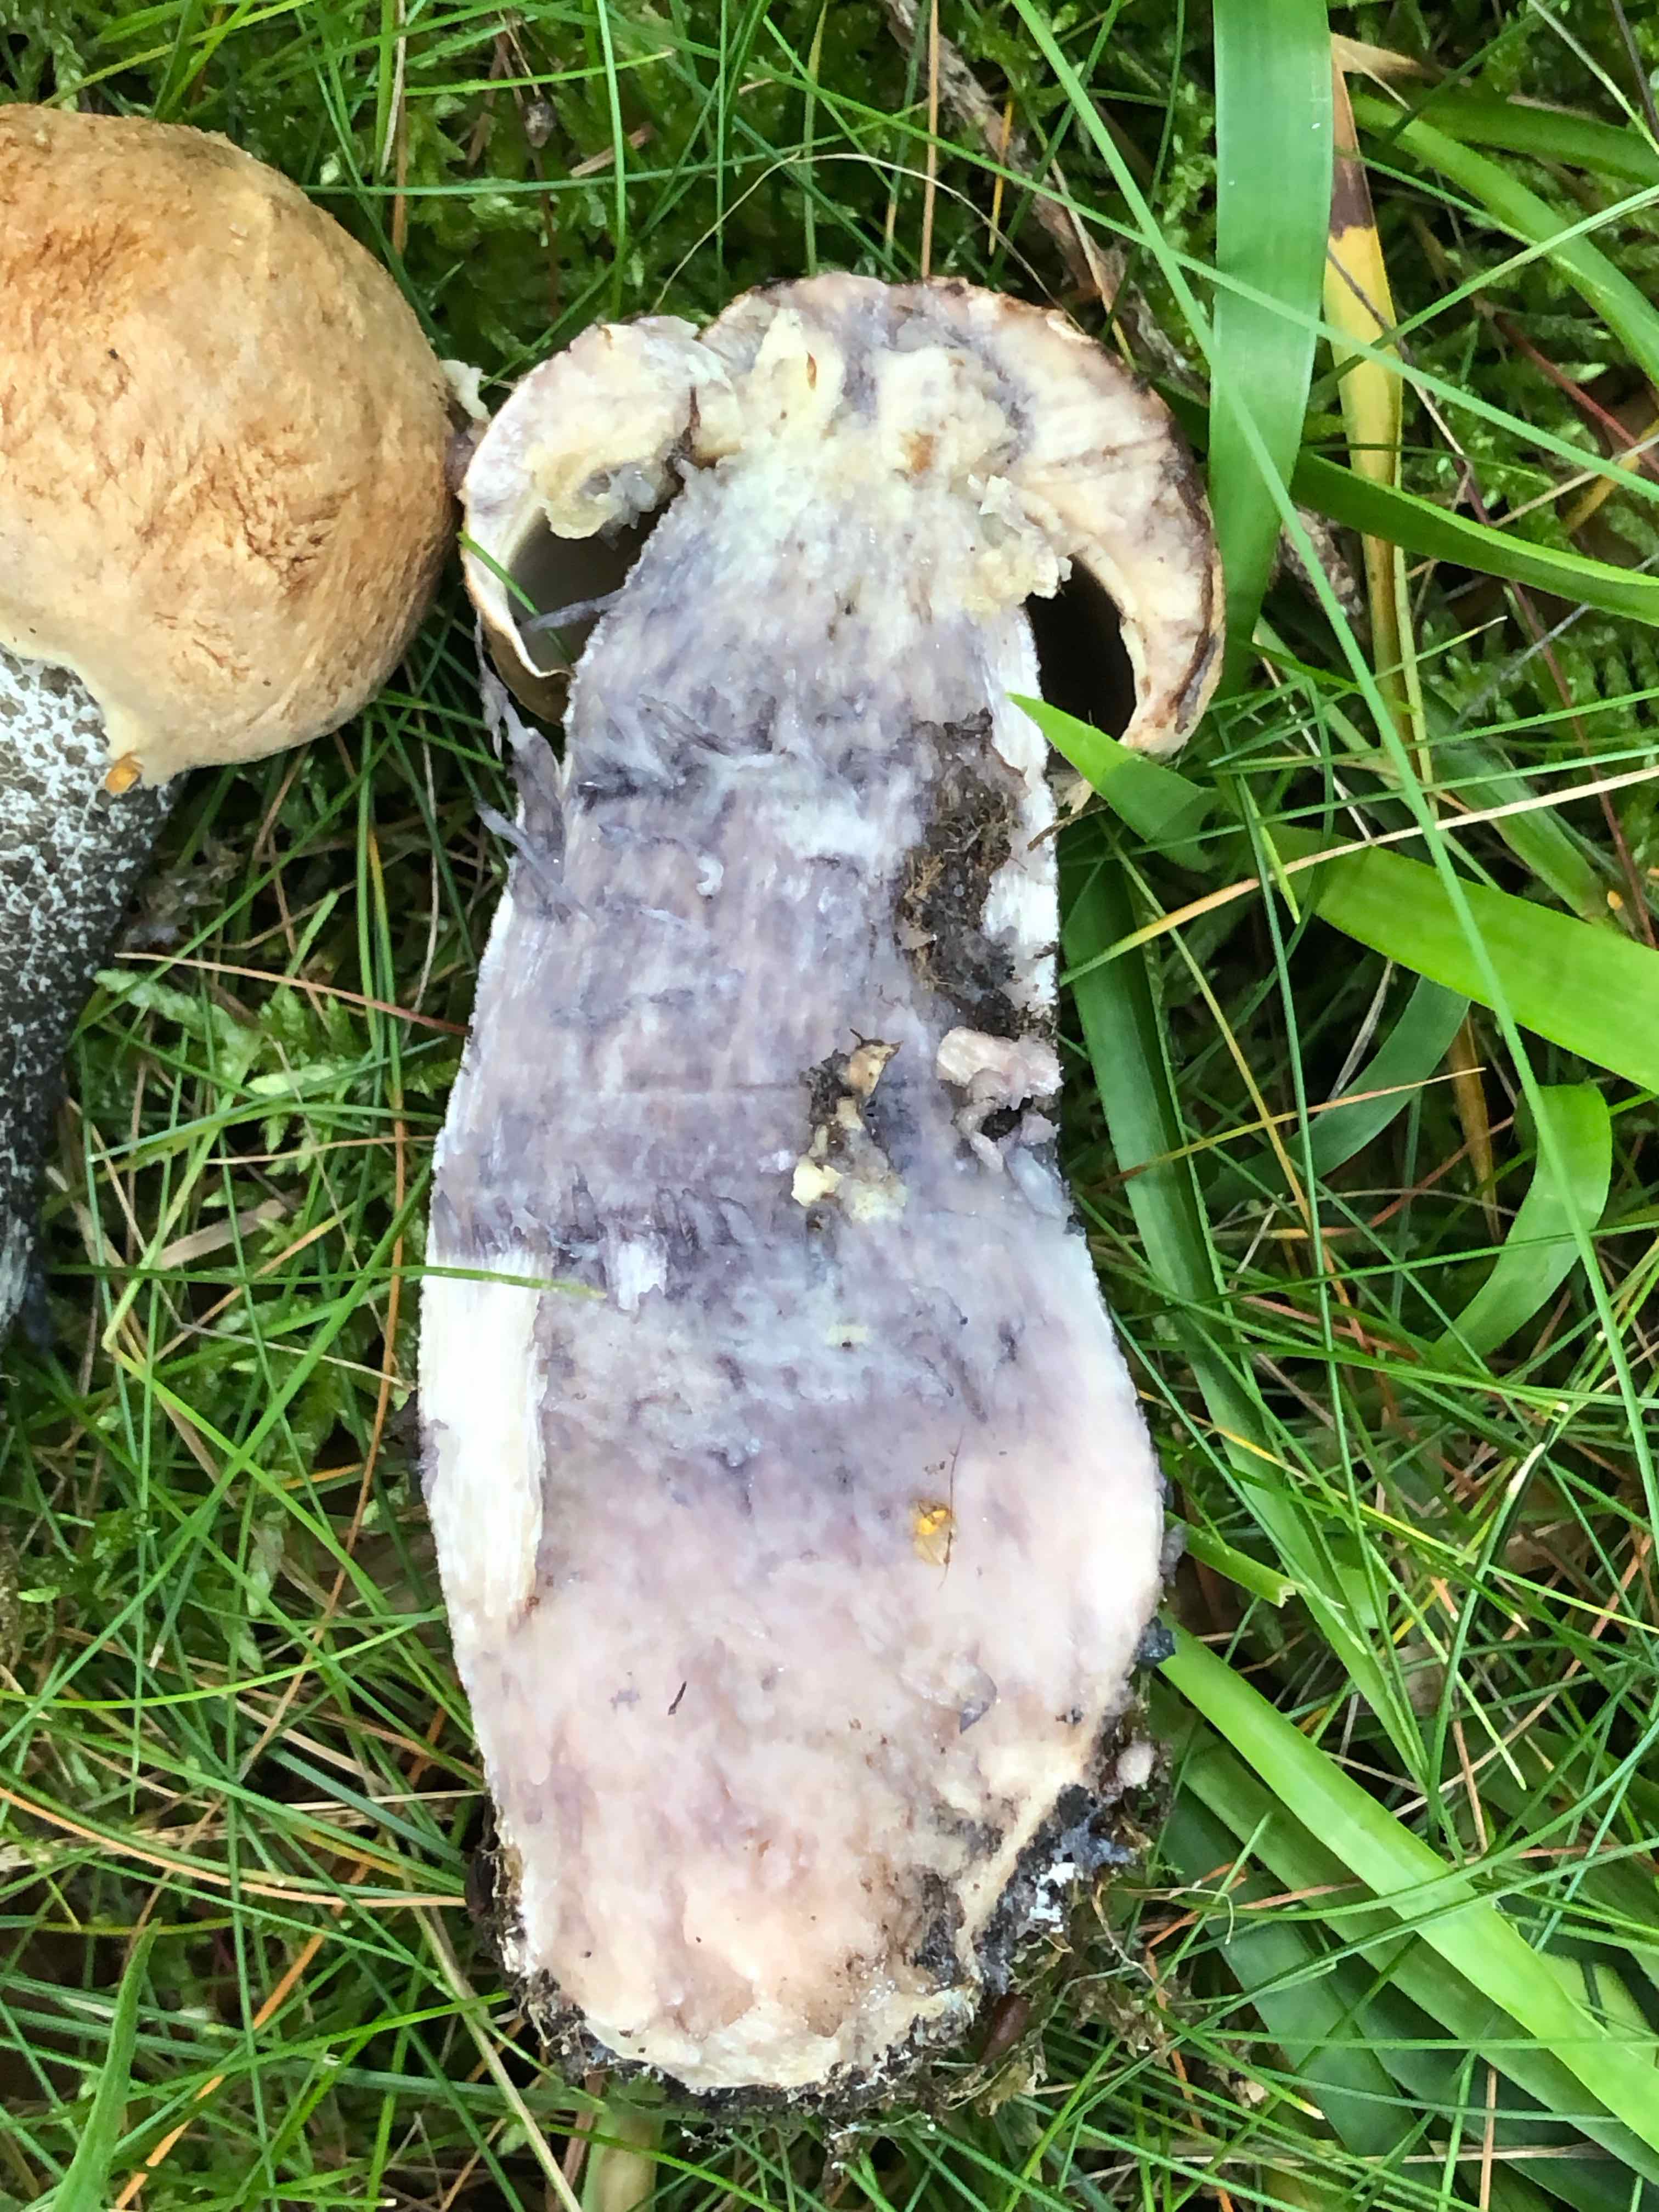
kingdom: Fungi
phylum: Basidiomycota
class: Agaricomycetes
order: Boletales
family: Boletaceae
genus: Leccinum
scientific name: Leccinum versipelle
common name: orange skælrørhat
